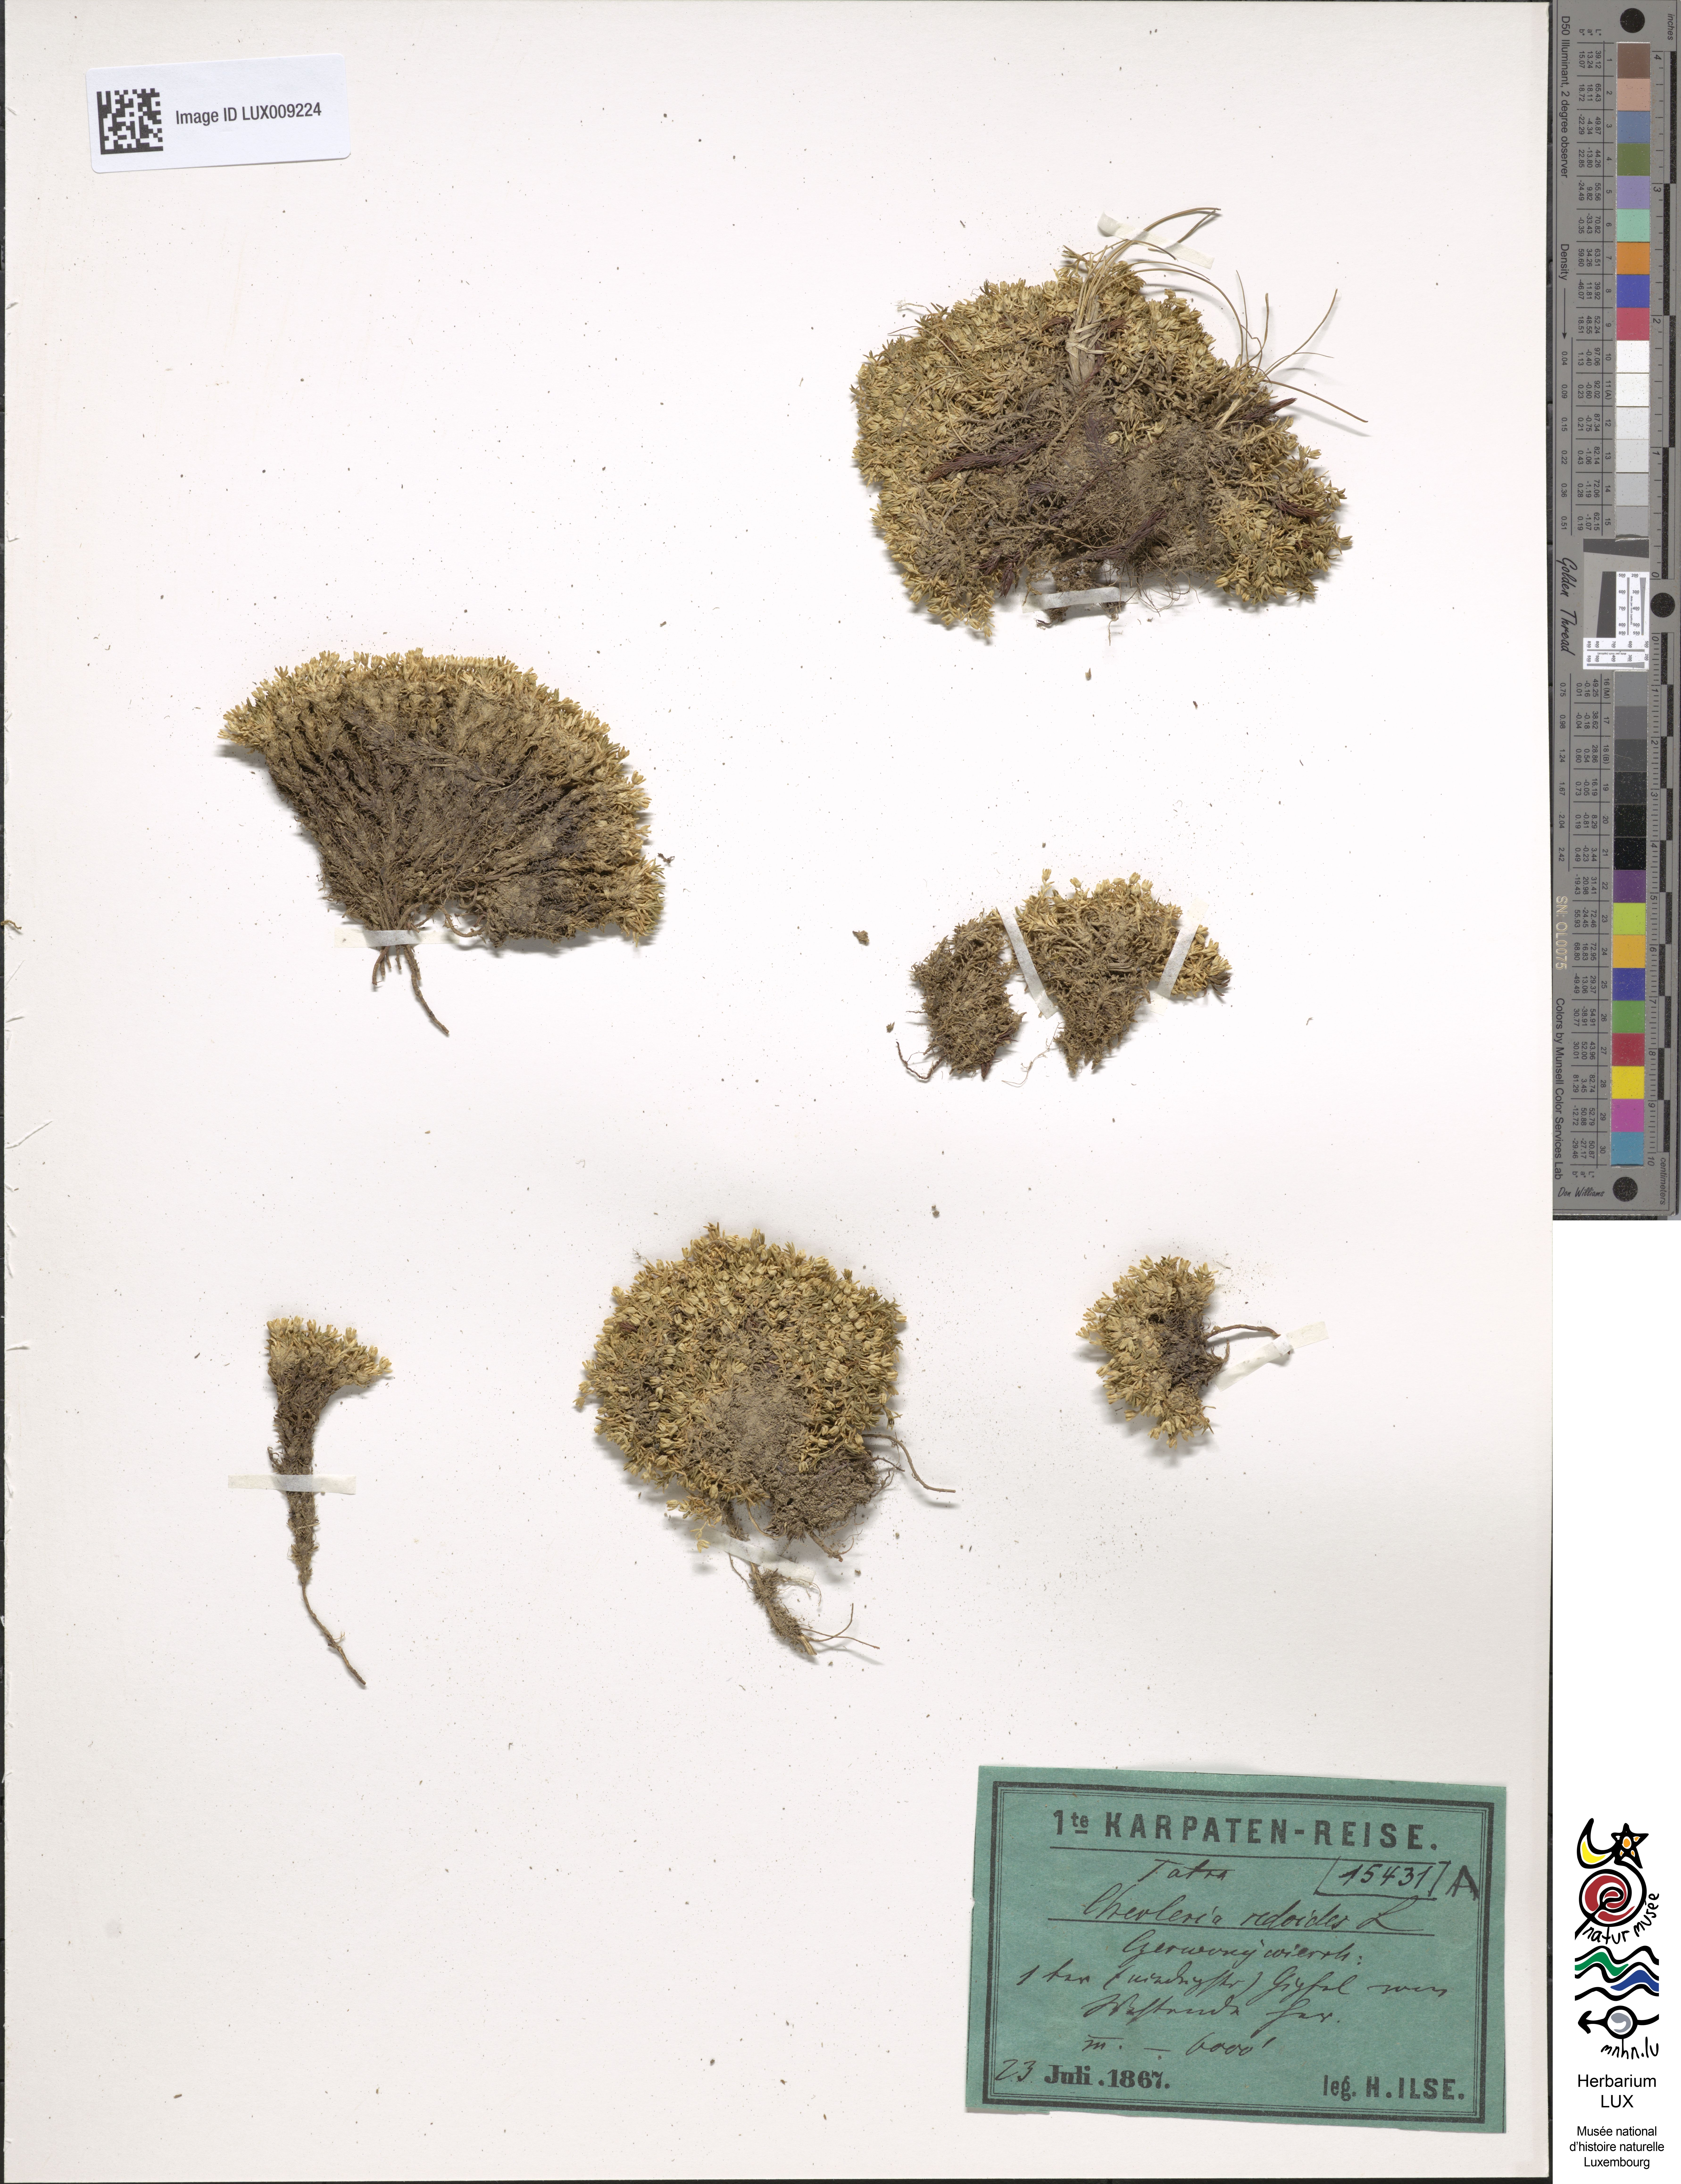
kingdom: Plantae
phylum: Tracheophyta
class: Magnoliopsida
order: Caryophyllales
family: Caryophyllaceae
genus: Cherleria
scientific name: Cherleria sedoides
